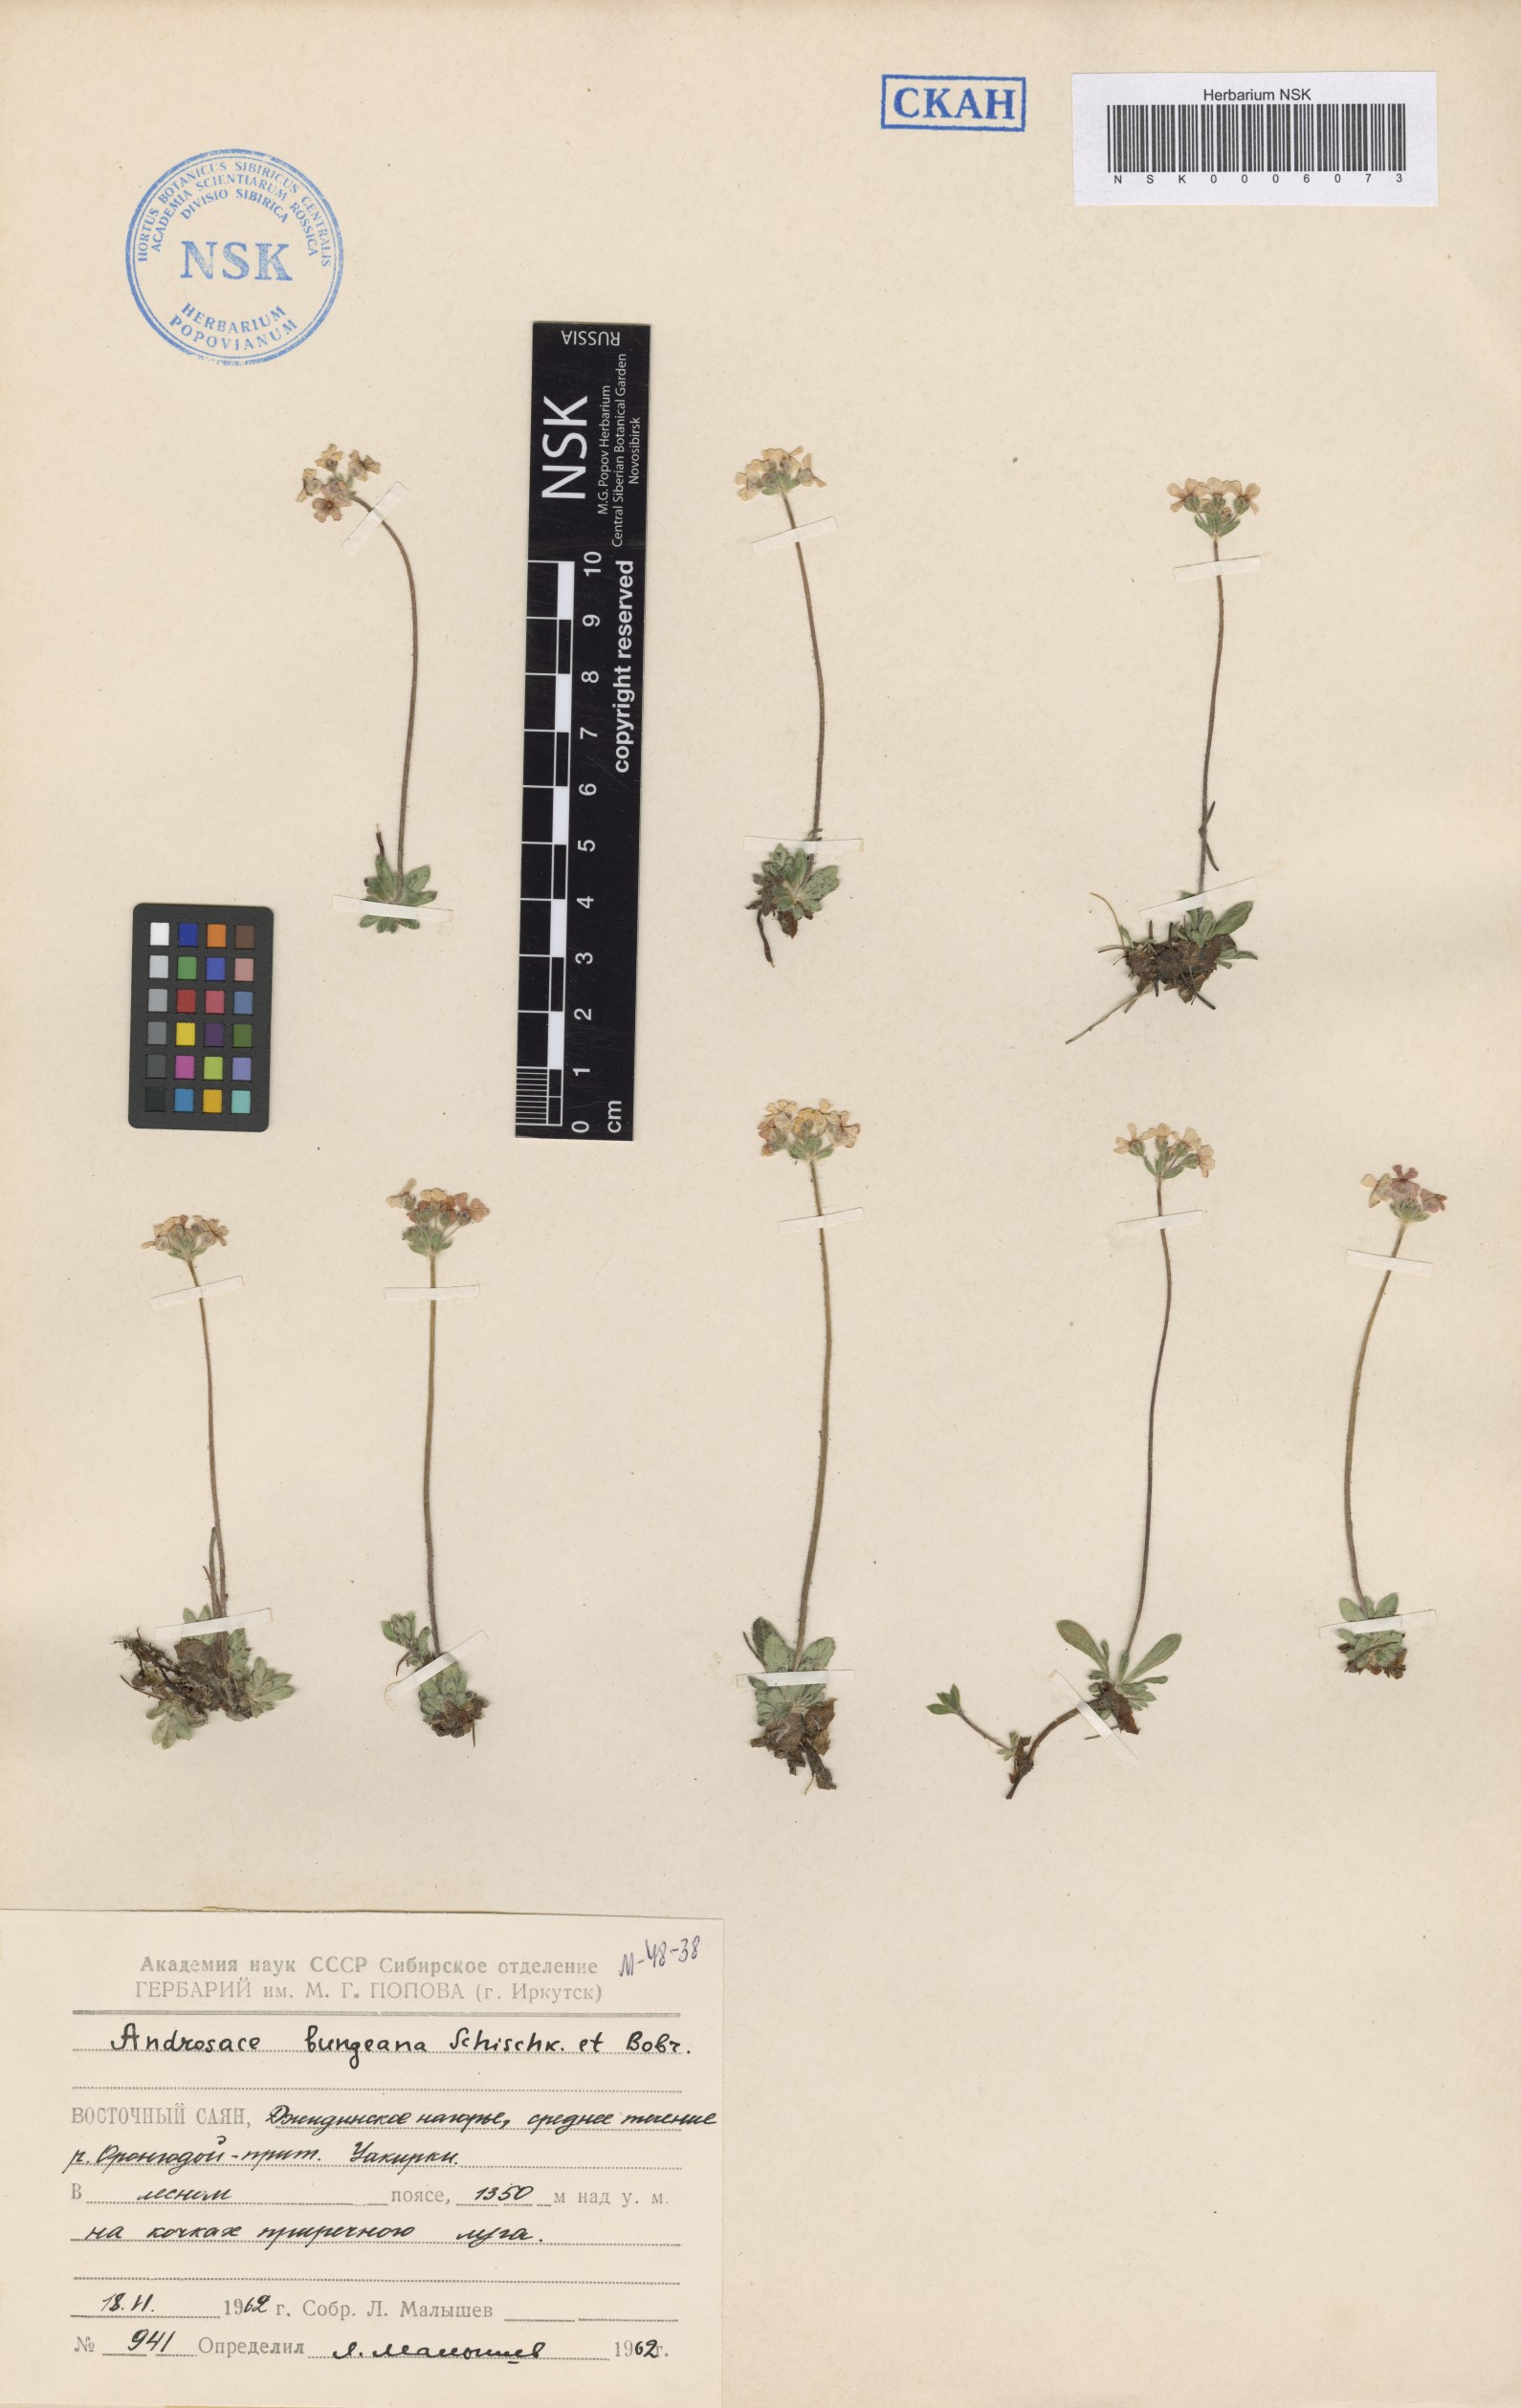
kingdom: Plantae
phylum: Tracheophyta
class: Magnoliopsida
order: Ericales
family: Primulaceae
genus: Androsace
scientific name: Androsace bungeana
